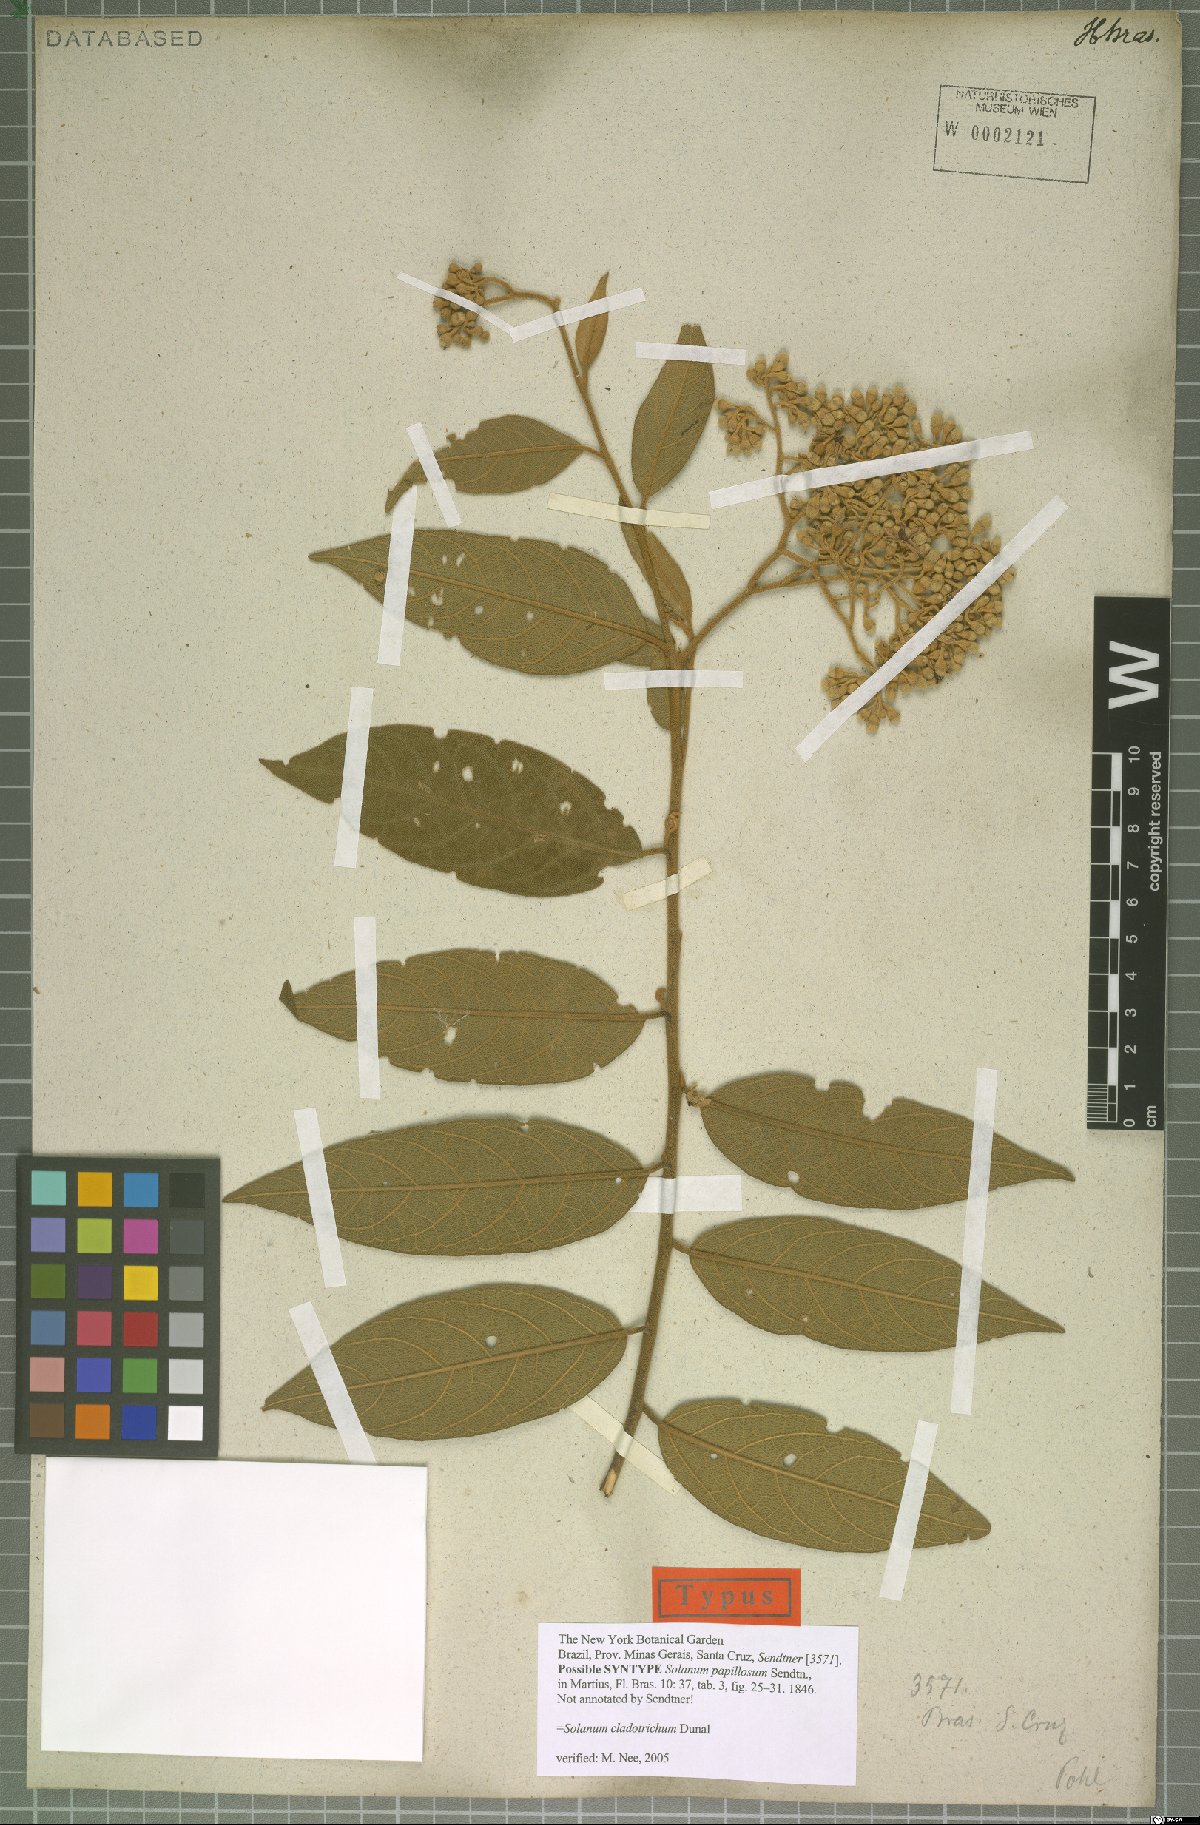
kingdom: Plantae
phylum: Tracheophyta
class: Magnoliopsida
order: Solanales
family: Solanaceae
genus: Solanum
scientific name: Solanum jussiaei
